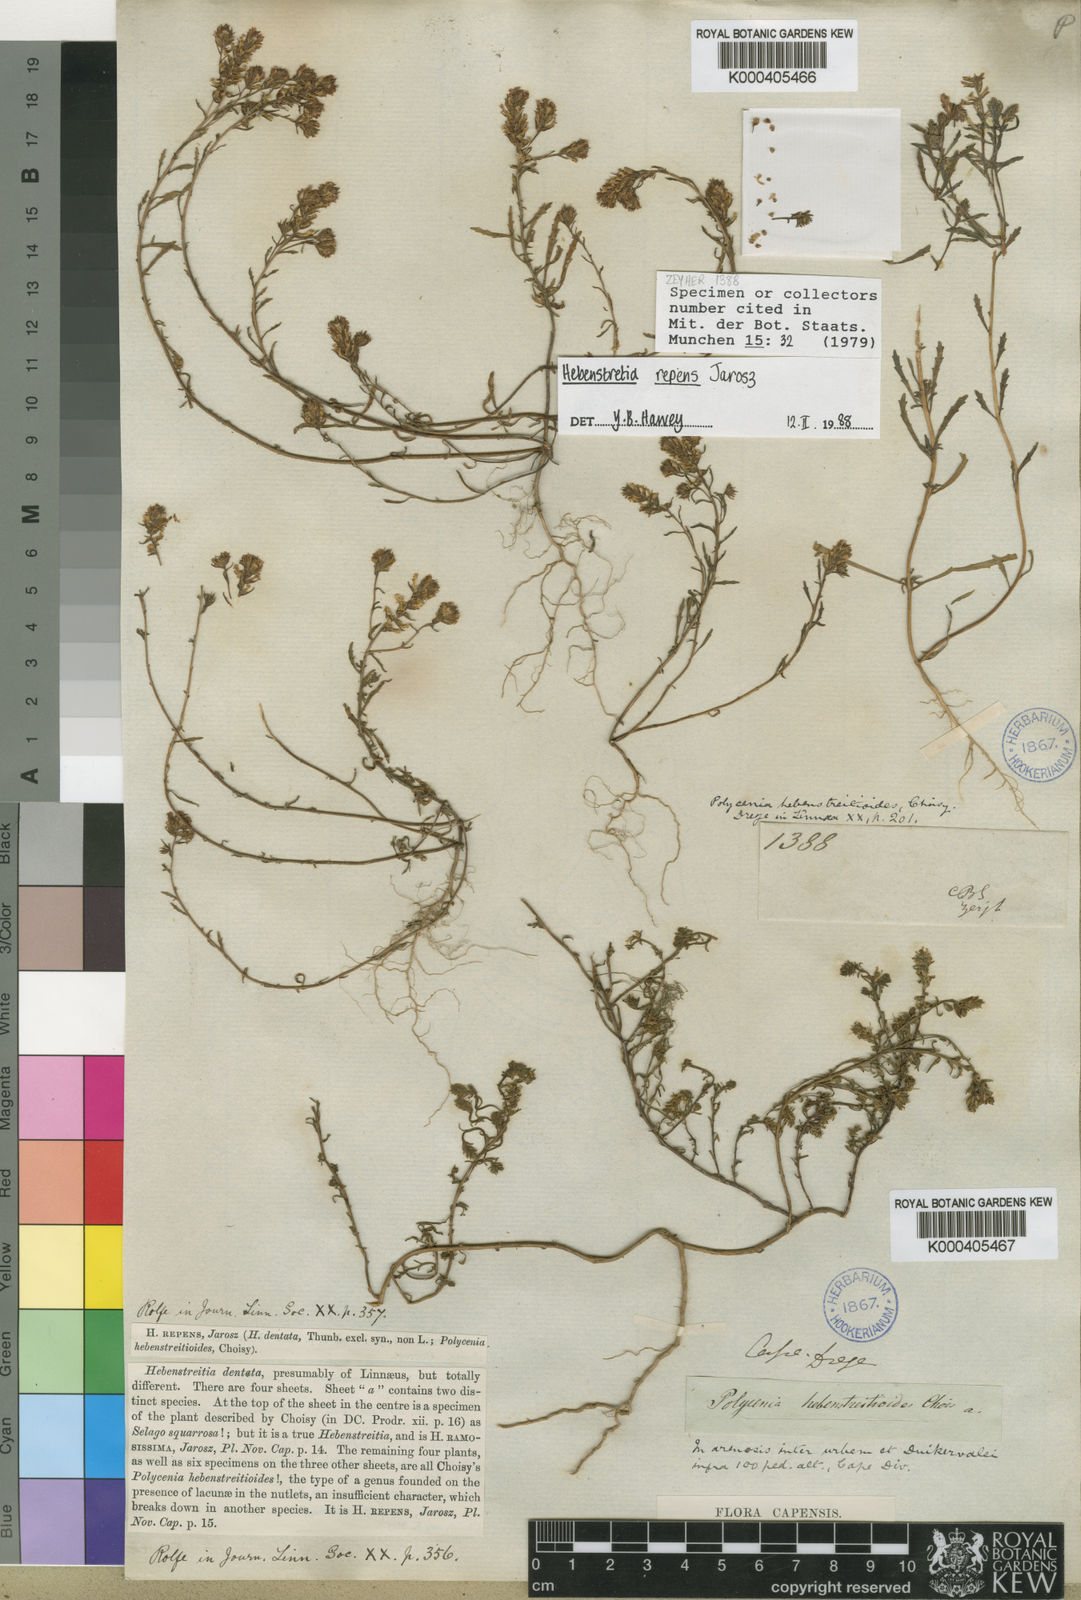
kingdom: Plantae
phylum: Tracheophyta
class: Magnoliopsida
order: Lamiales
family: Scrophulariaceae
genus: Hebenstretia
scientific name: Hebenstretia repens
